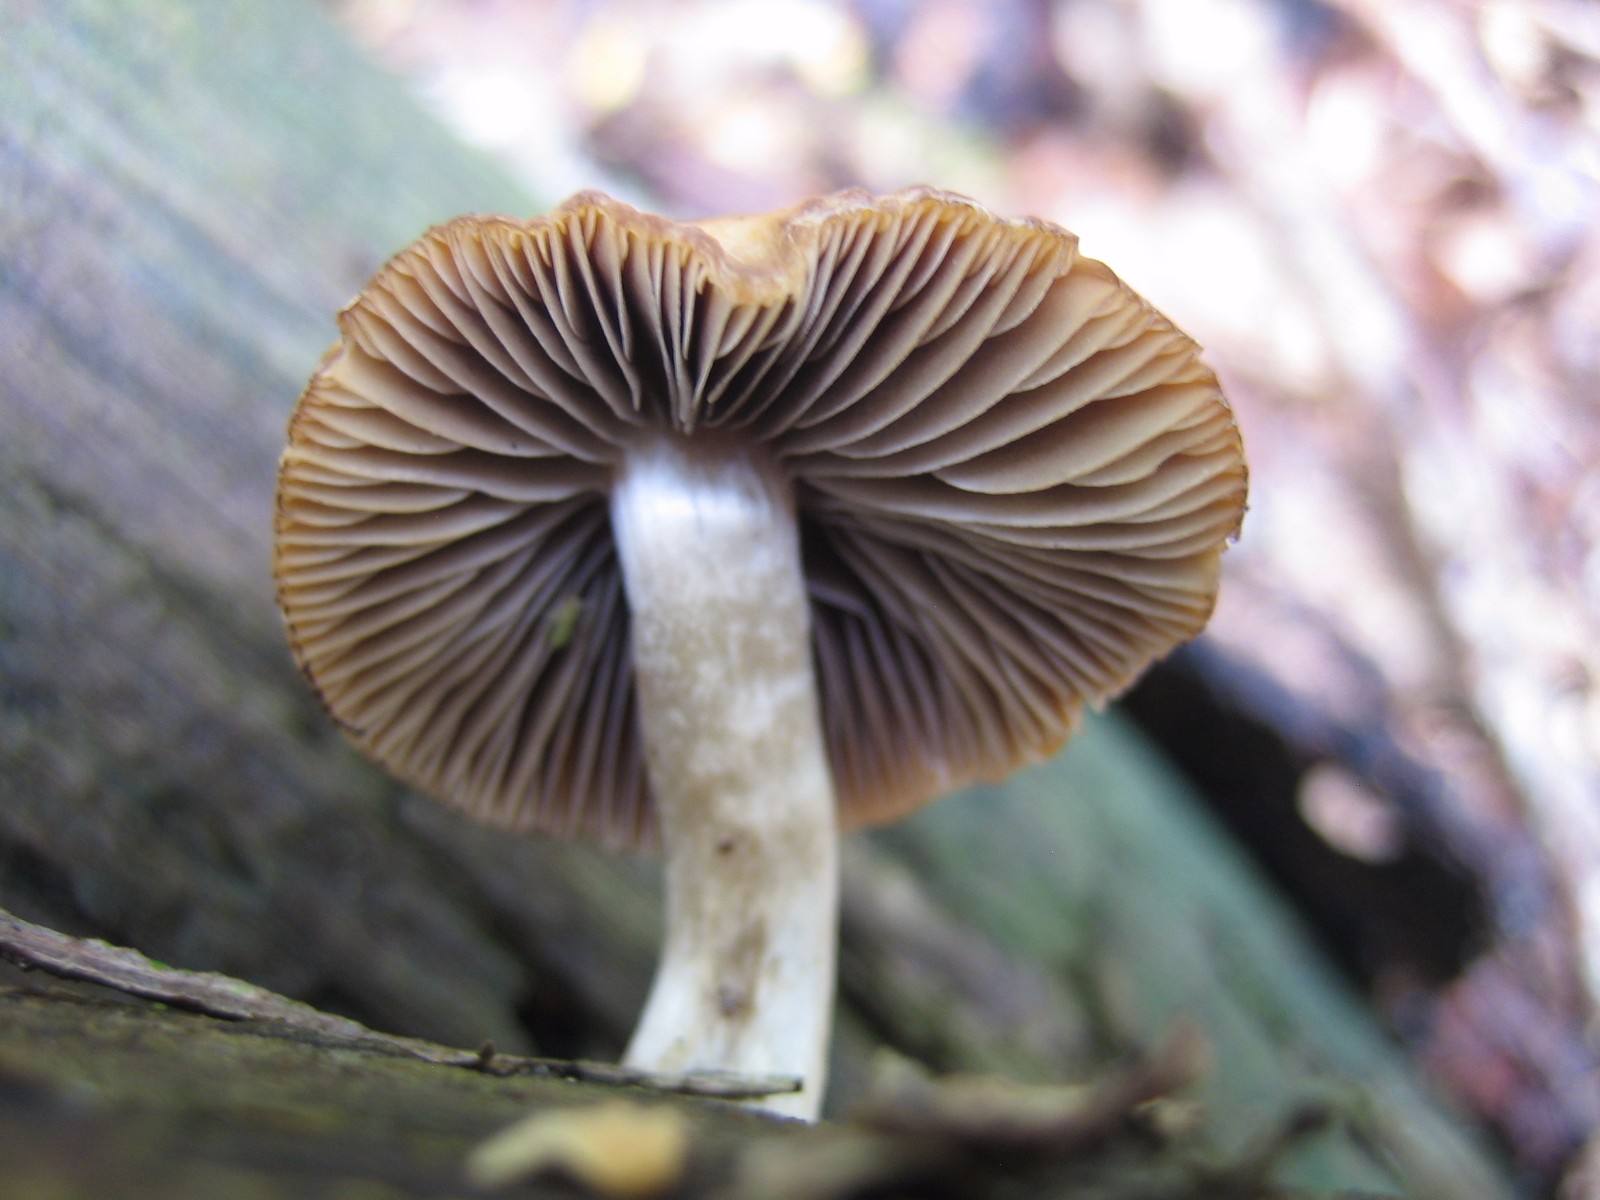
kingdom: Fungi
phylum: Basidiomycota
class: Agaricomycetes
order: Agaricales
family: Psathyrellaceae
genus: Psathyrella
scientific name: Psathyrella
